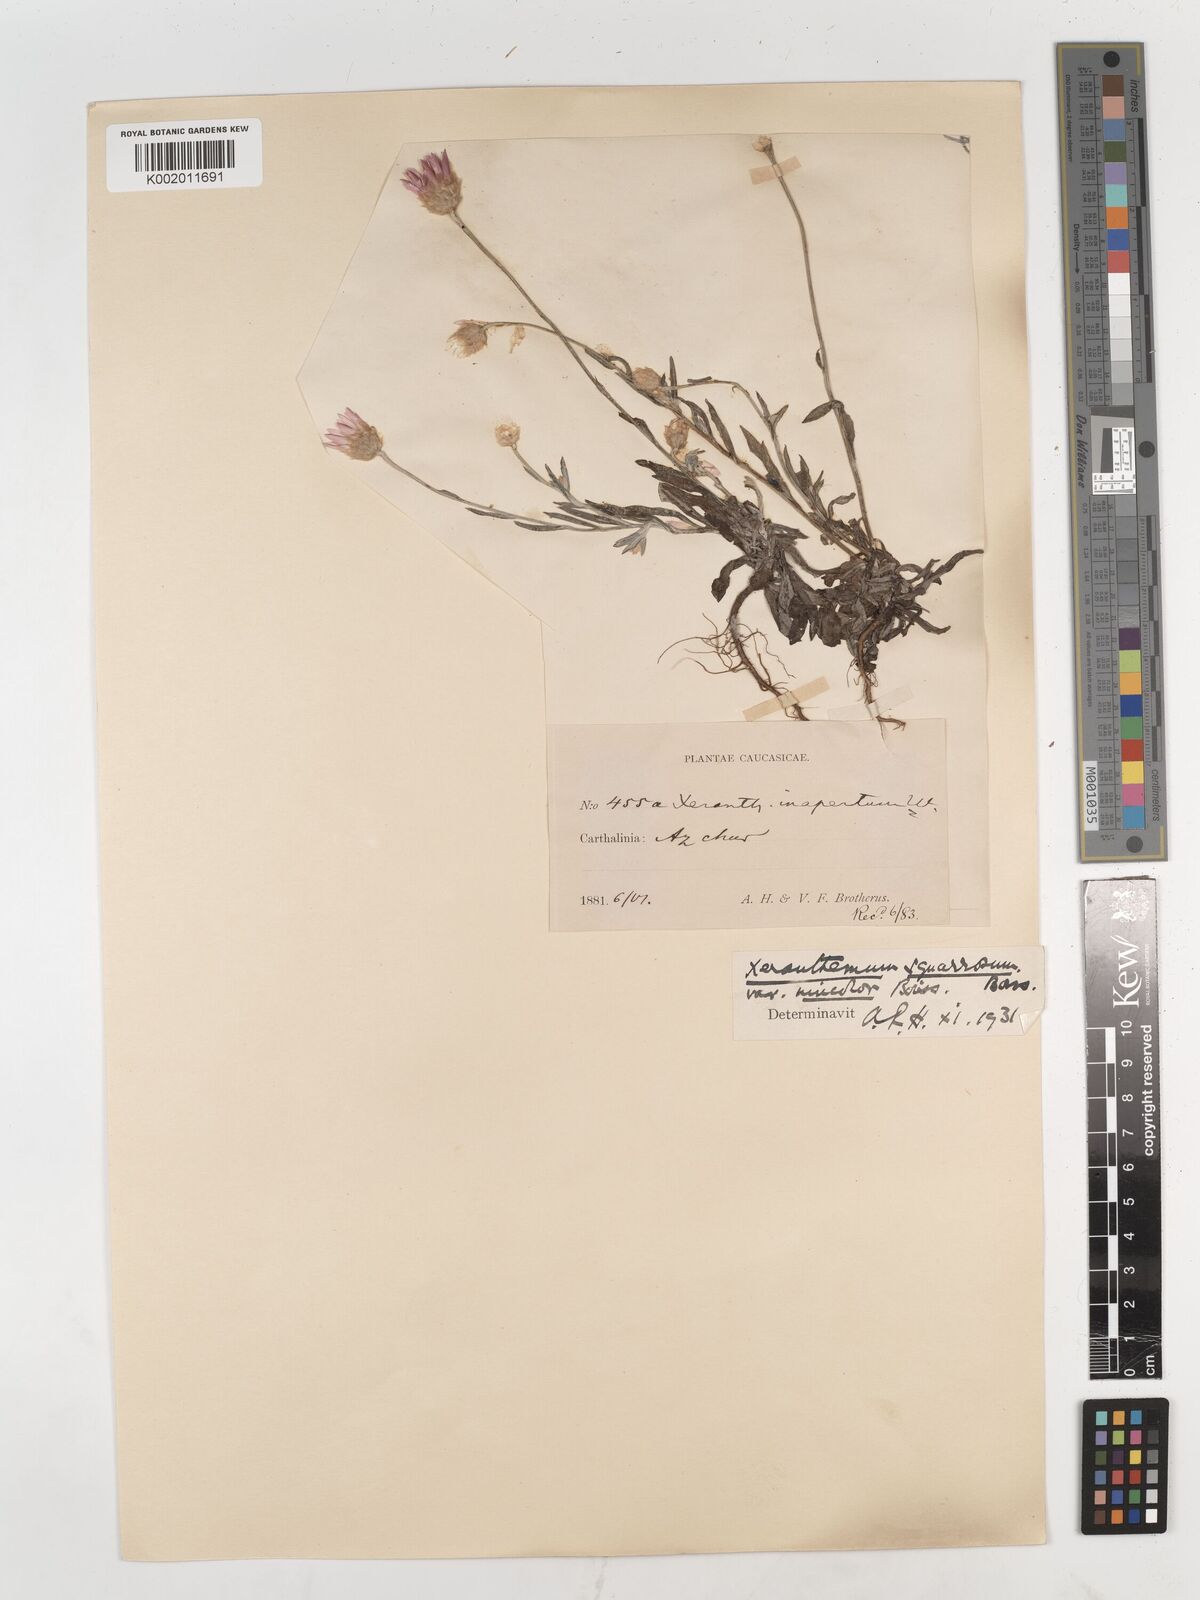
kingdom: Plantae
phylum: Tracheophyta
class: Magnoliopsida
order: Asterales
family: Asteraceae
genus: Xeranthemum
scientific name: Xeranthemum squarrosum
